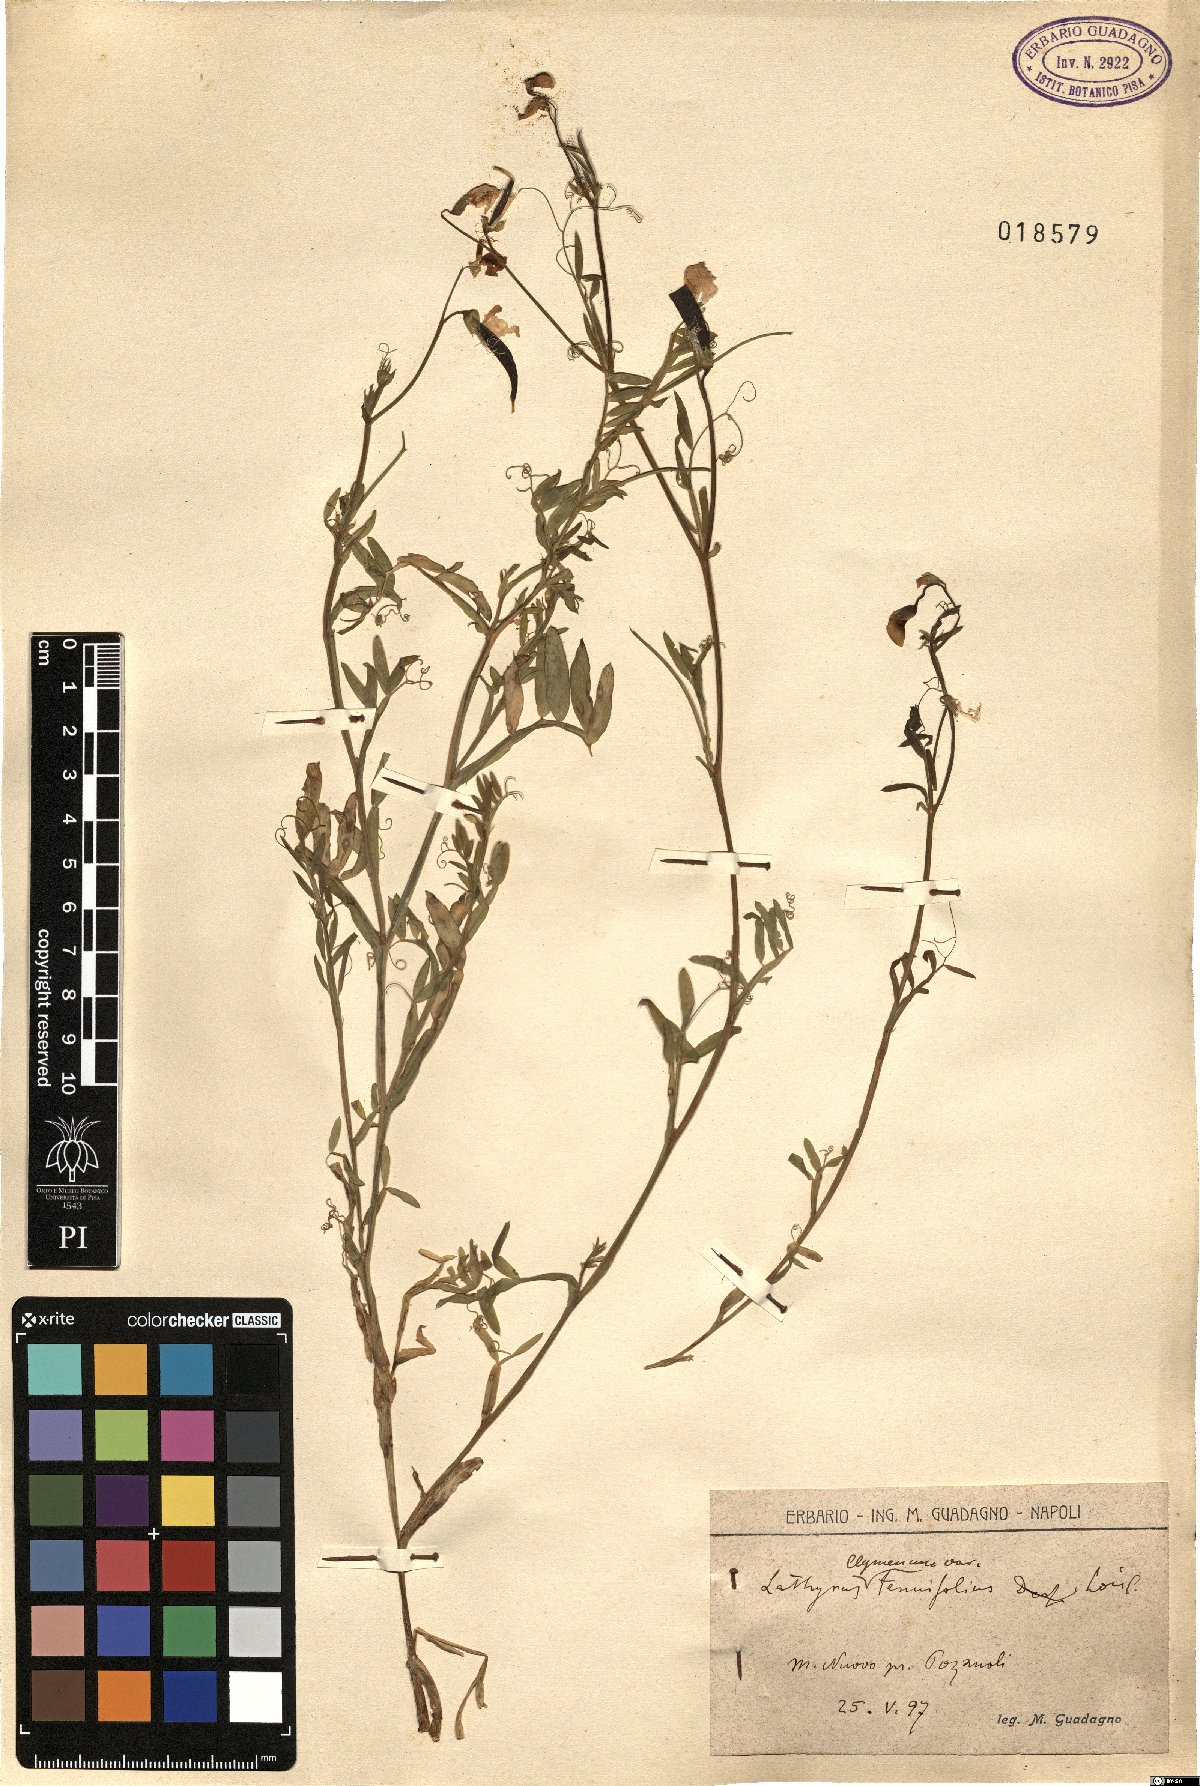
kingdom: Plantae
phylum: Tracheophyta
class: Magnoliopsida
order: Fabales
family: Fabaceae
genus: Lathyrus
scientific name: Lathyrus clymenum
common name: Spanish vetchling
